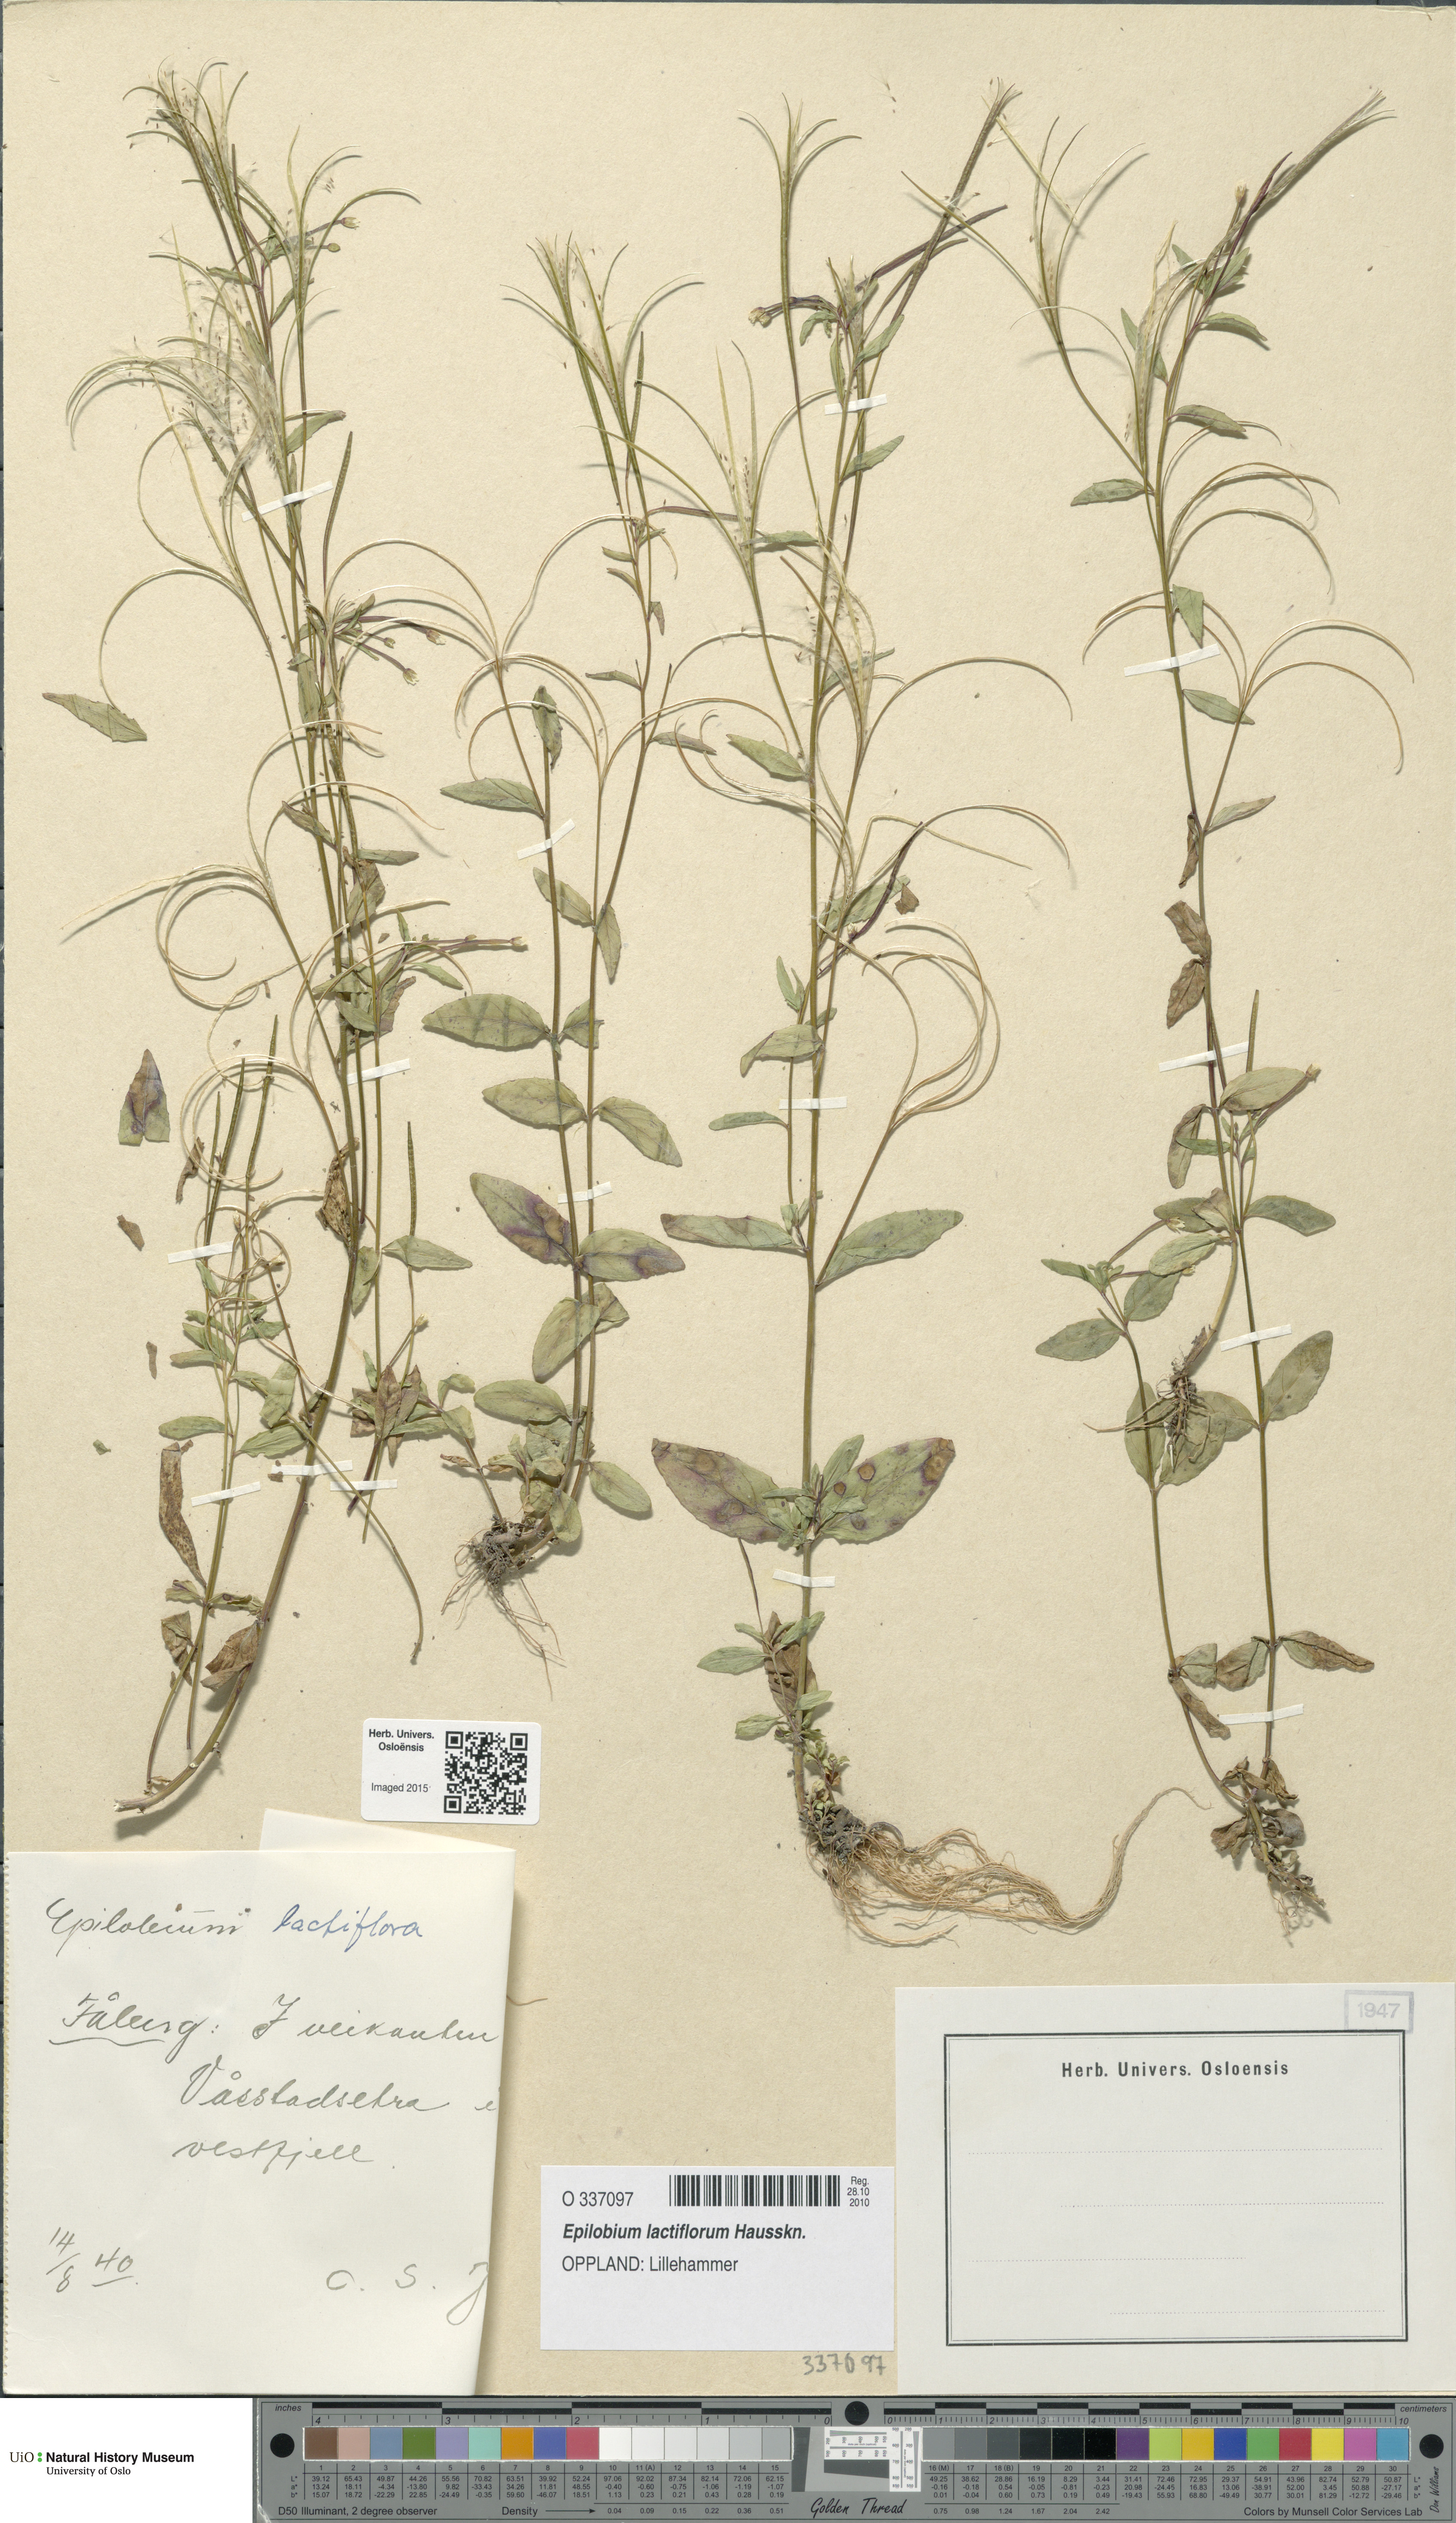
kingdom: Plantae
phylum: Tracheophyta
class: Magnoliopsida
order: Myrtales
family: Onagraceae
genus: Epilobium
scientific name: Epilobium lactiflorum
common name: Milkflower willowherb
